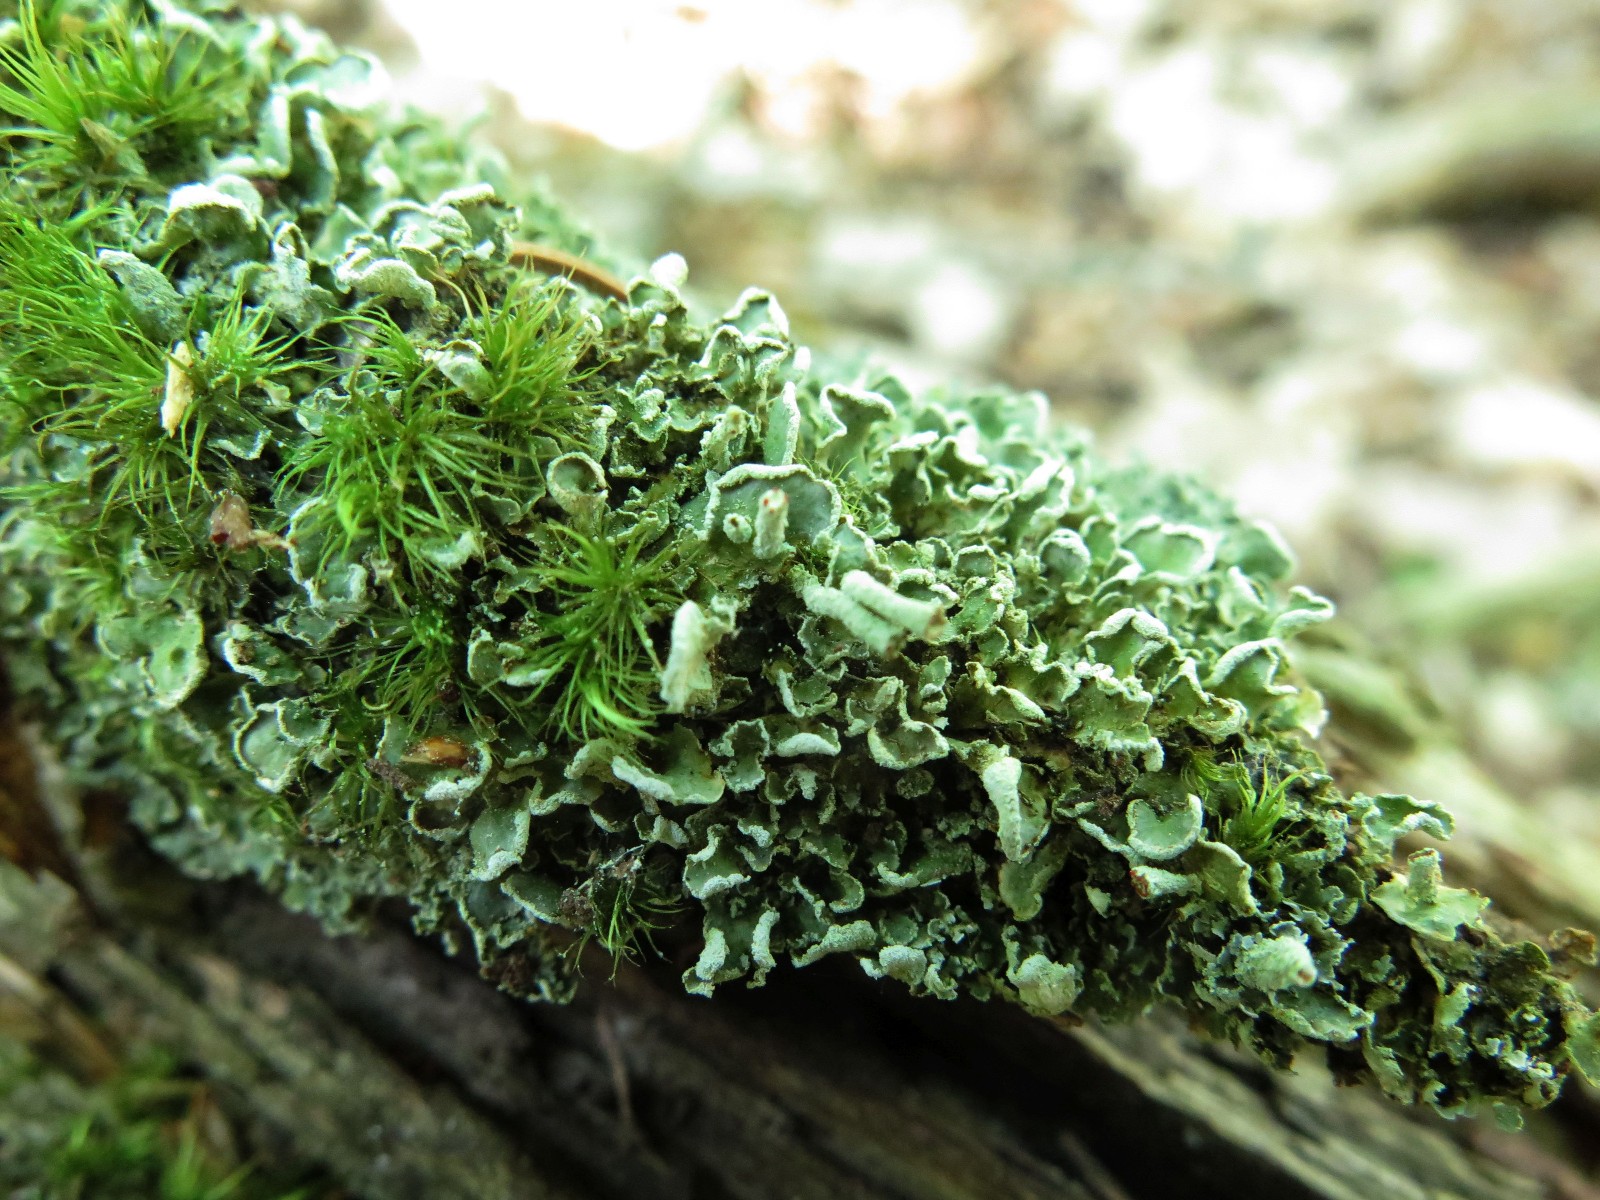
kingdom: Fungi
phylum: Ascomycota
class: Lecanoromycetes
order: Lecanorales
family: Cladoniaceae
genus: Cladonia
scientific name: Cladonia digitata
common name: finger-bægerlav
